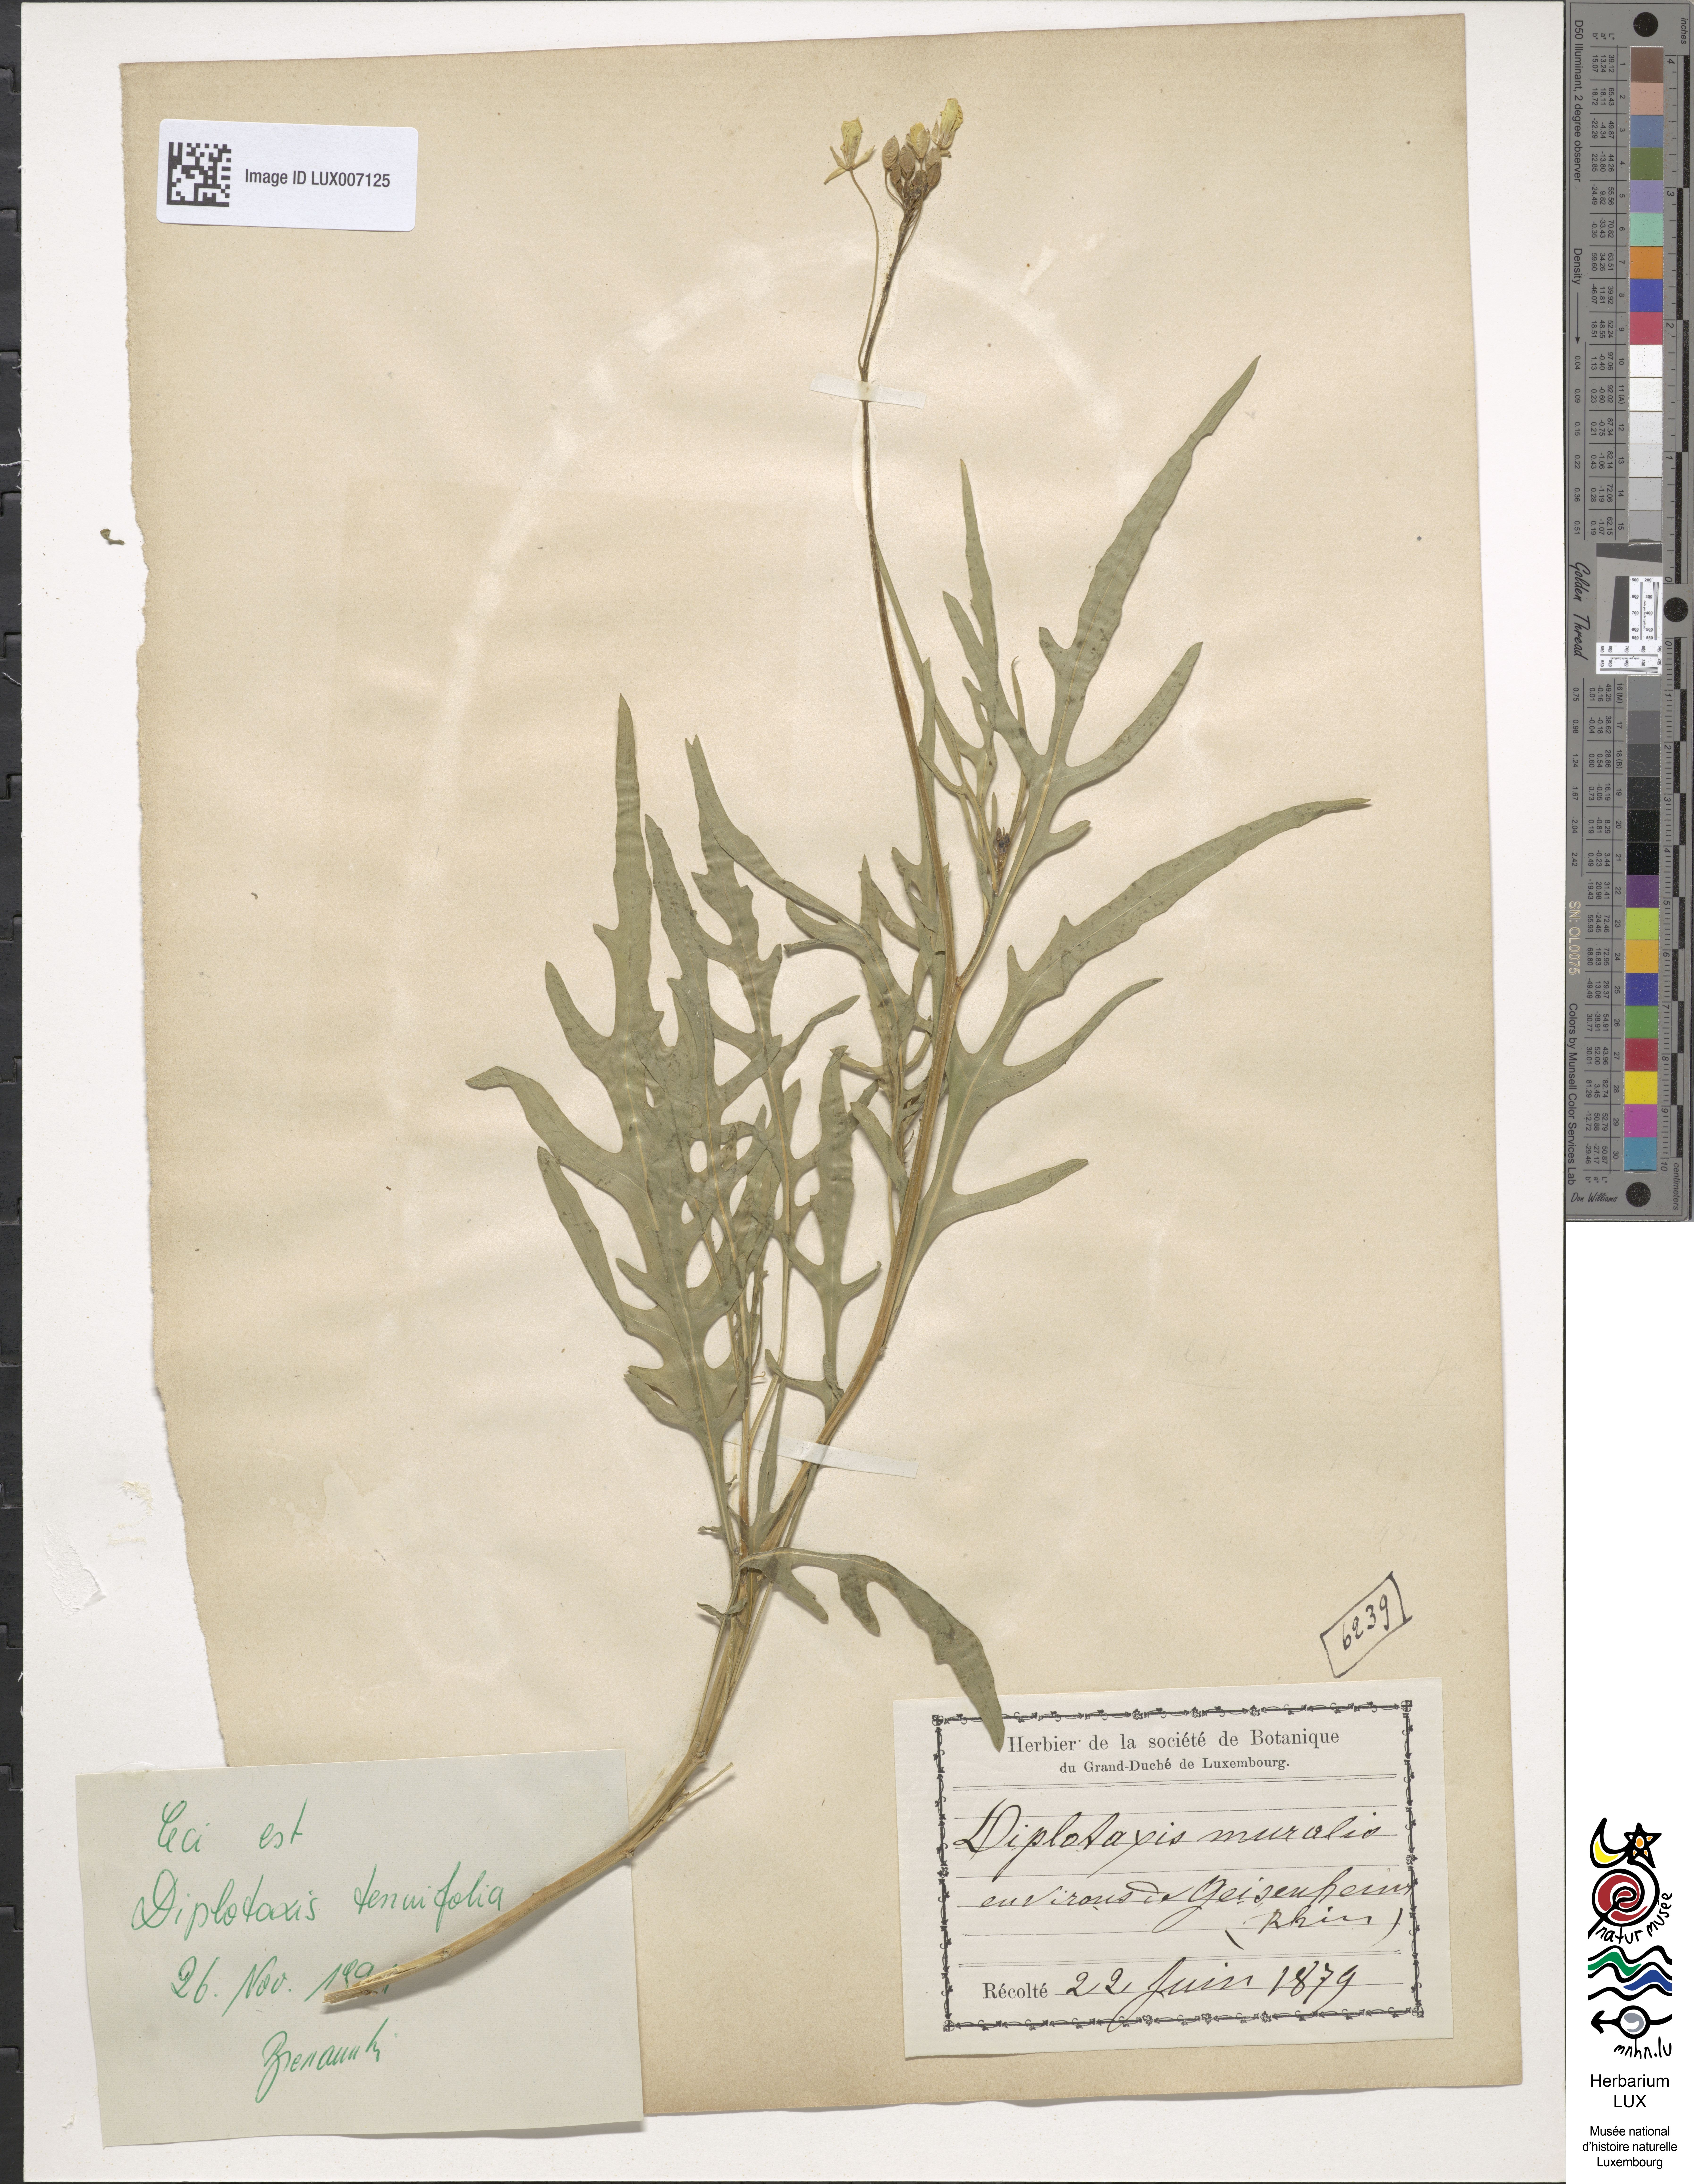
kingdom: Plantae
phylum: Tracheophyta
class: Magnoliopsida
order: Brassicales
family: Brassicaceae
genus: Diplotaxis
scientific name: Diplotaxis tenuifolia
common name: Perennial wall-rocket
